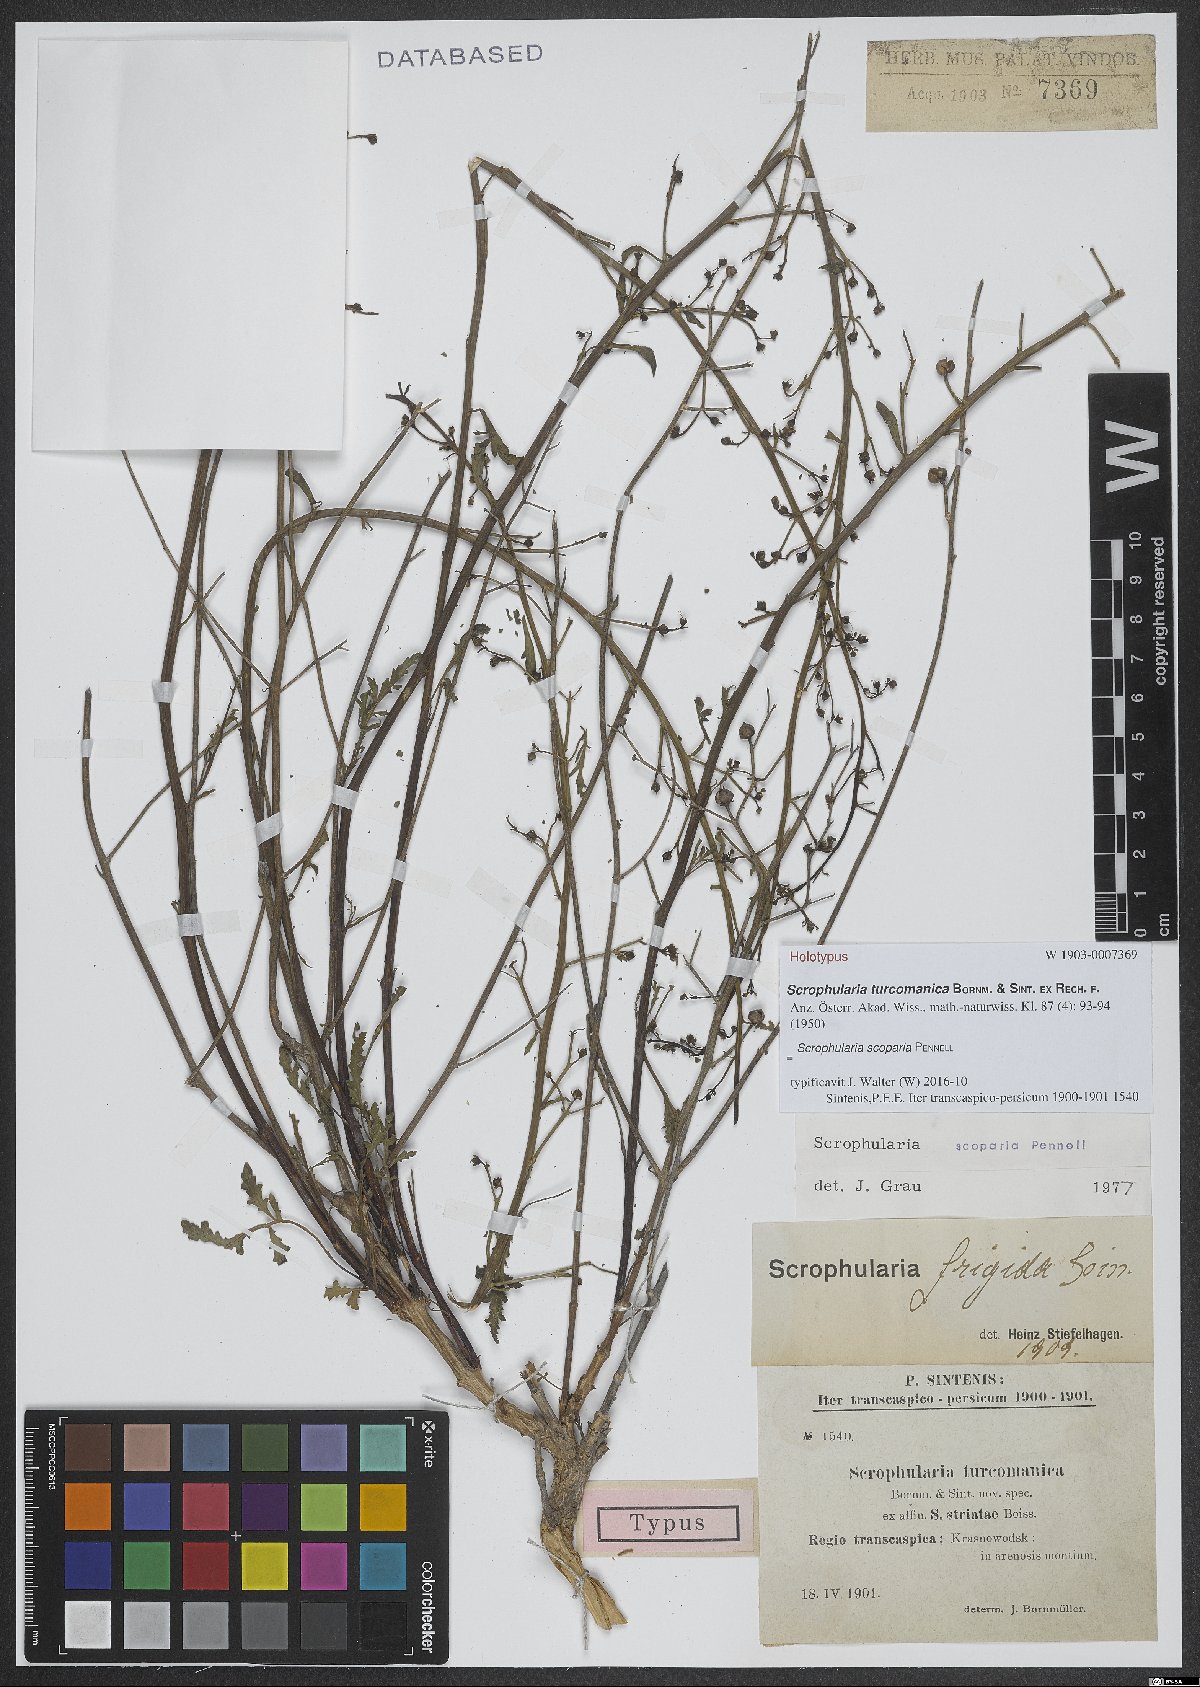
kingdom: Plantae
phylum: Tracheophyta
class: Magnoliopsida
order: Lamiales
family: Scrophulariaceae
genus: Scrophularia
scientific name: Scrophularia scoparia
